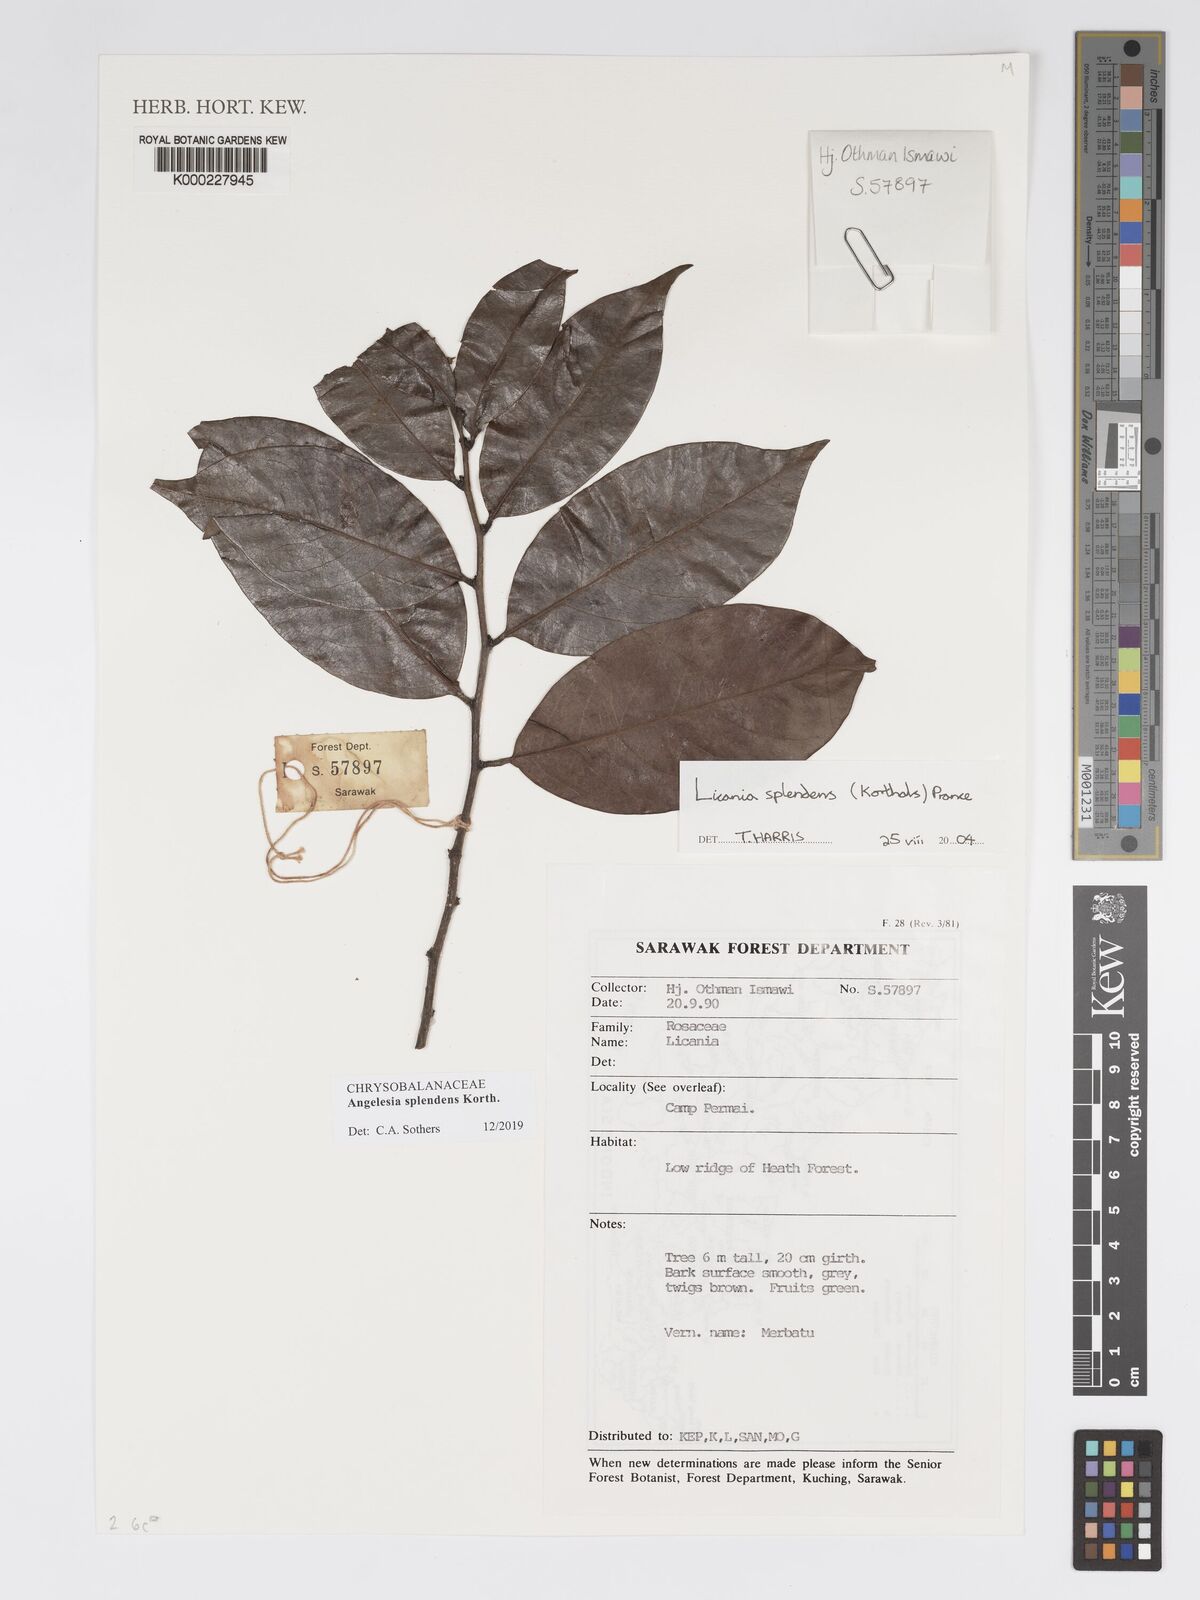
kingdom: Plantae
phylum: Tracheophyta
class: Magnoliopsida
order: Malpighiales
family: Chrysobalanaceae
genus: Angelesia
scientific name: Angelesia splendens
